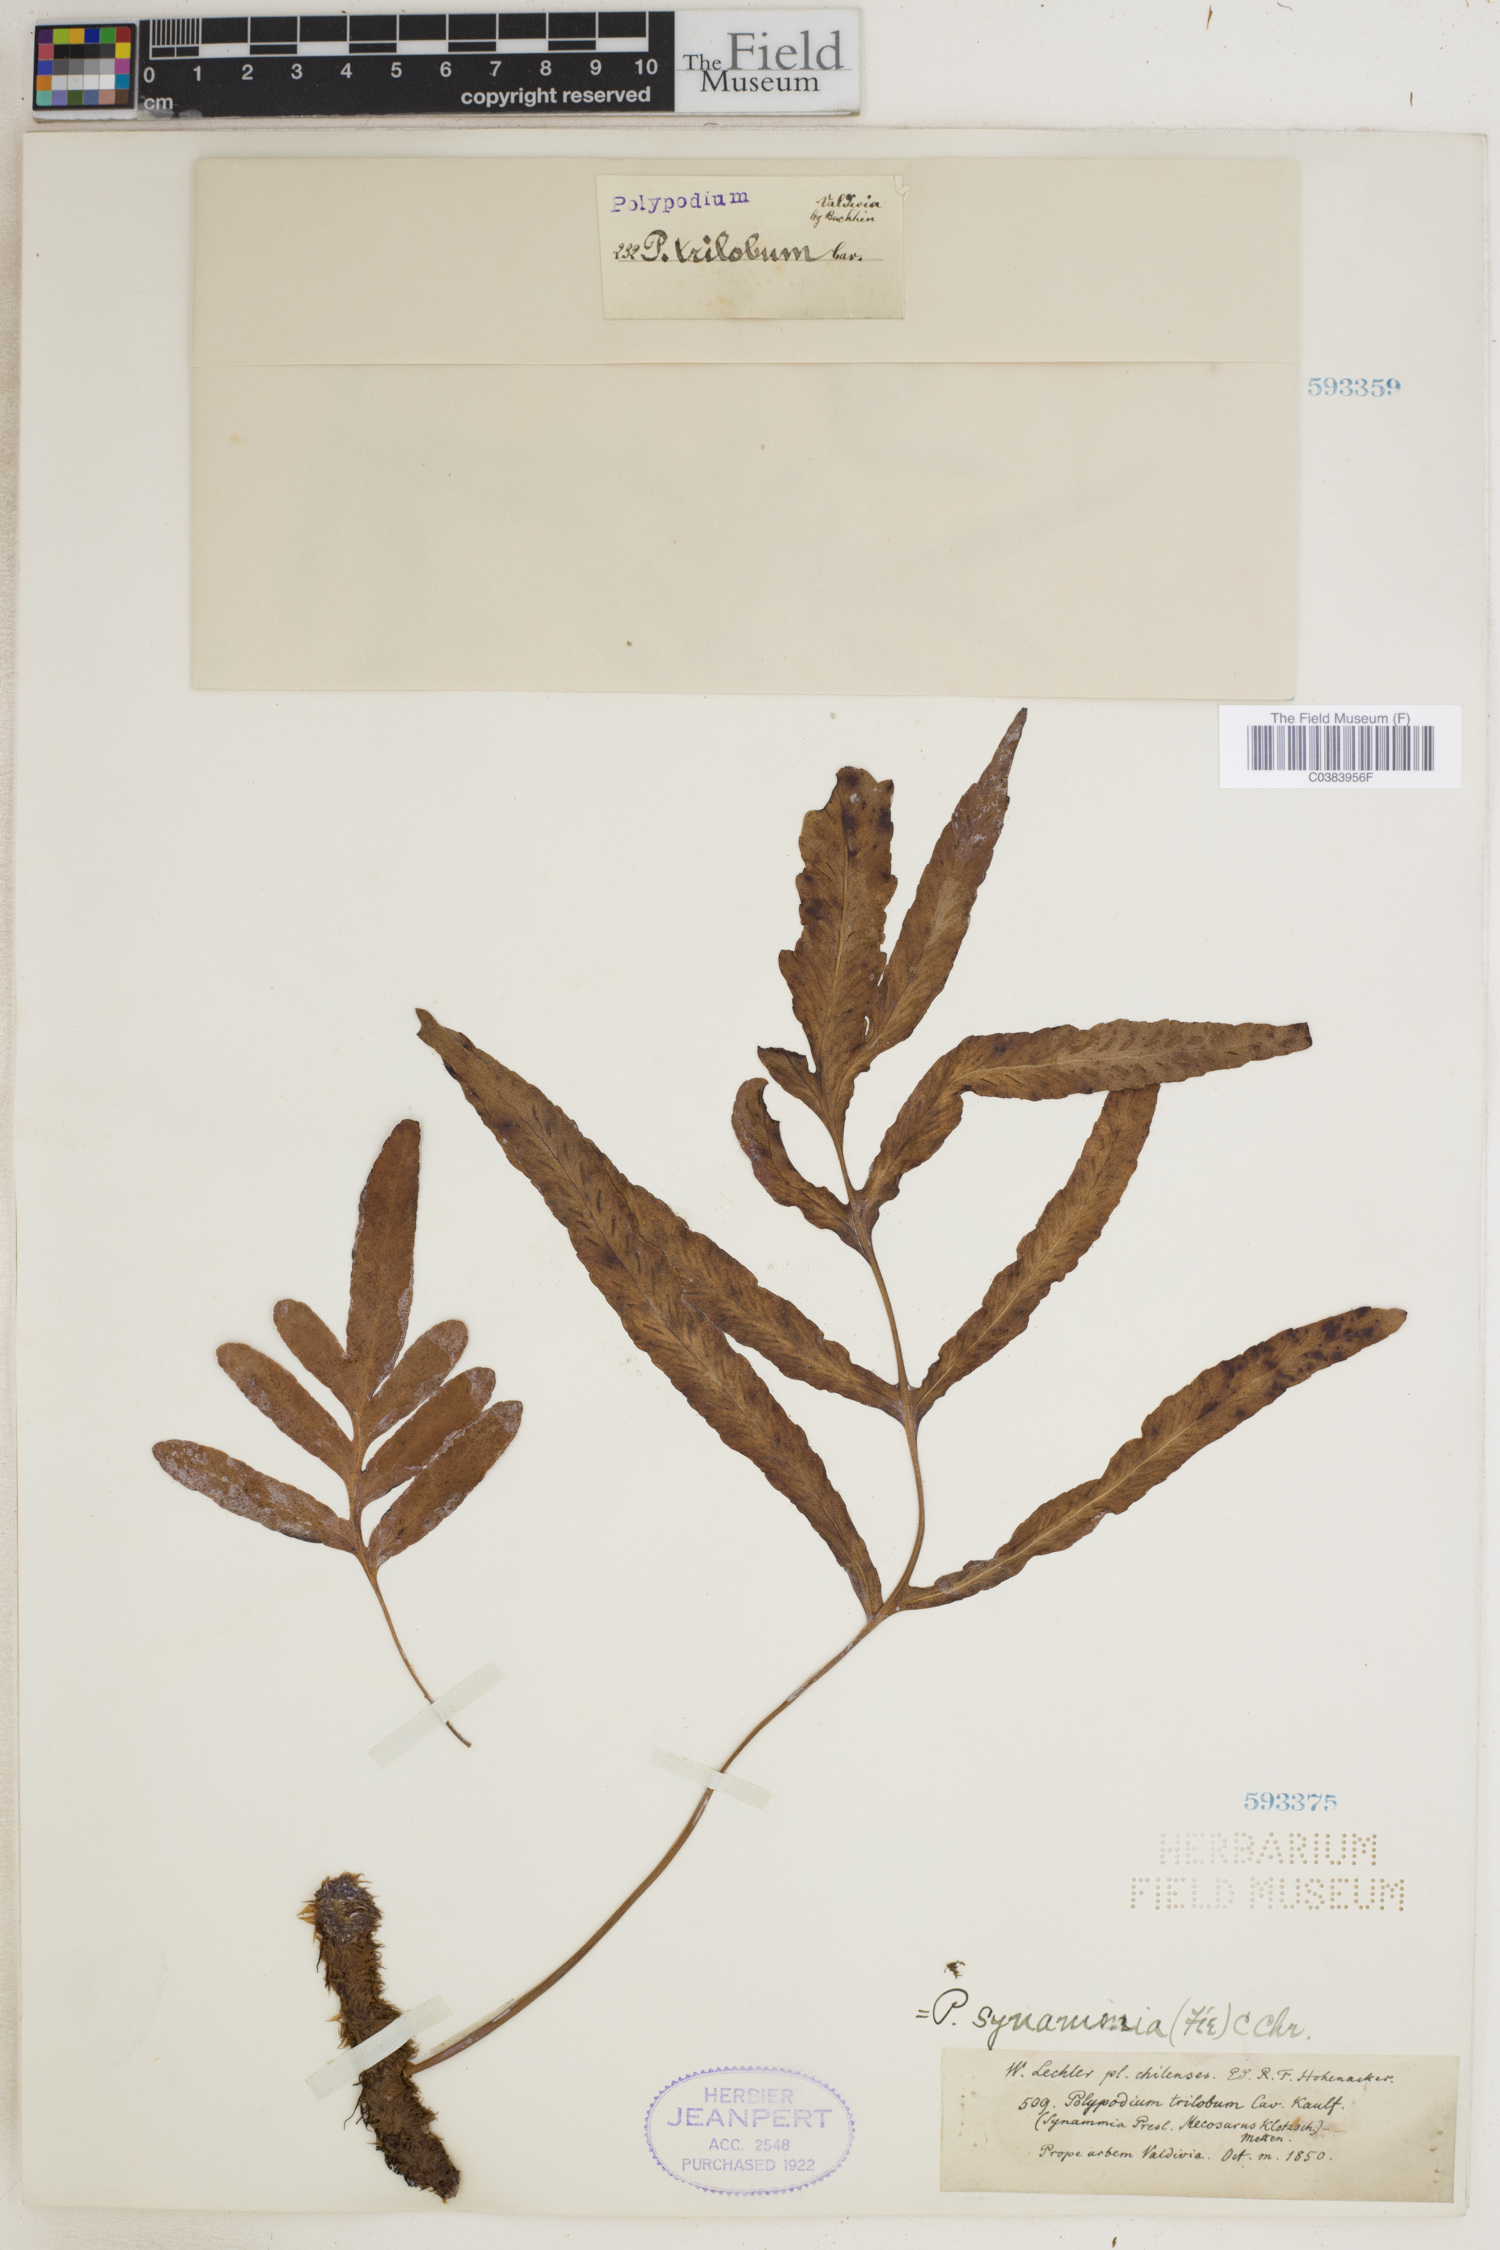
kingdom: Plantae
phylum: Tracheophyta
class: Polypodiopsida
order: Polypodiales
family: Polypodiaceae
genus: Selliguea
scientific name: Selliguea triloba
